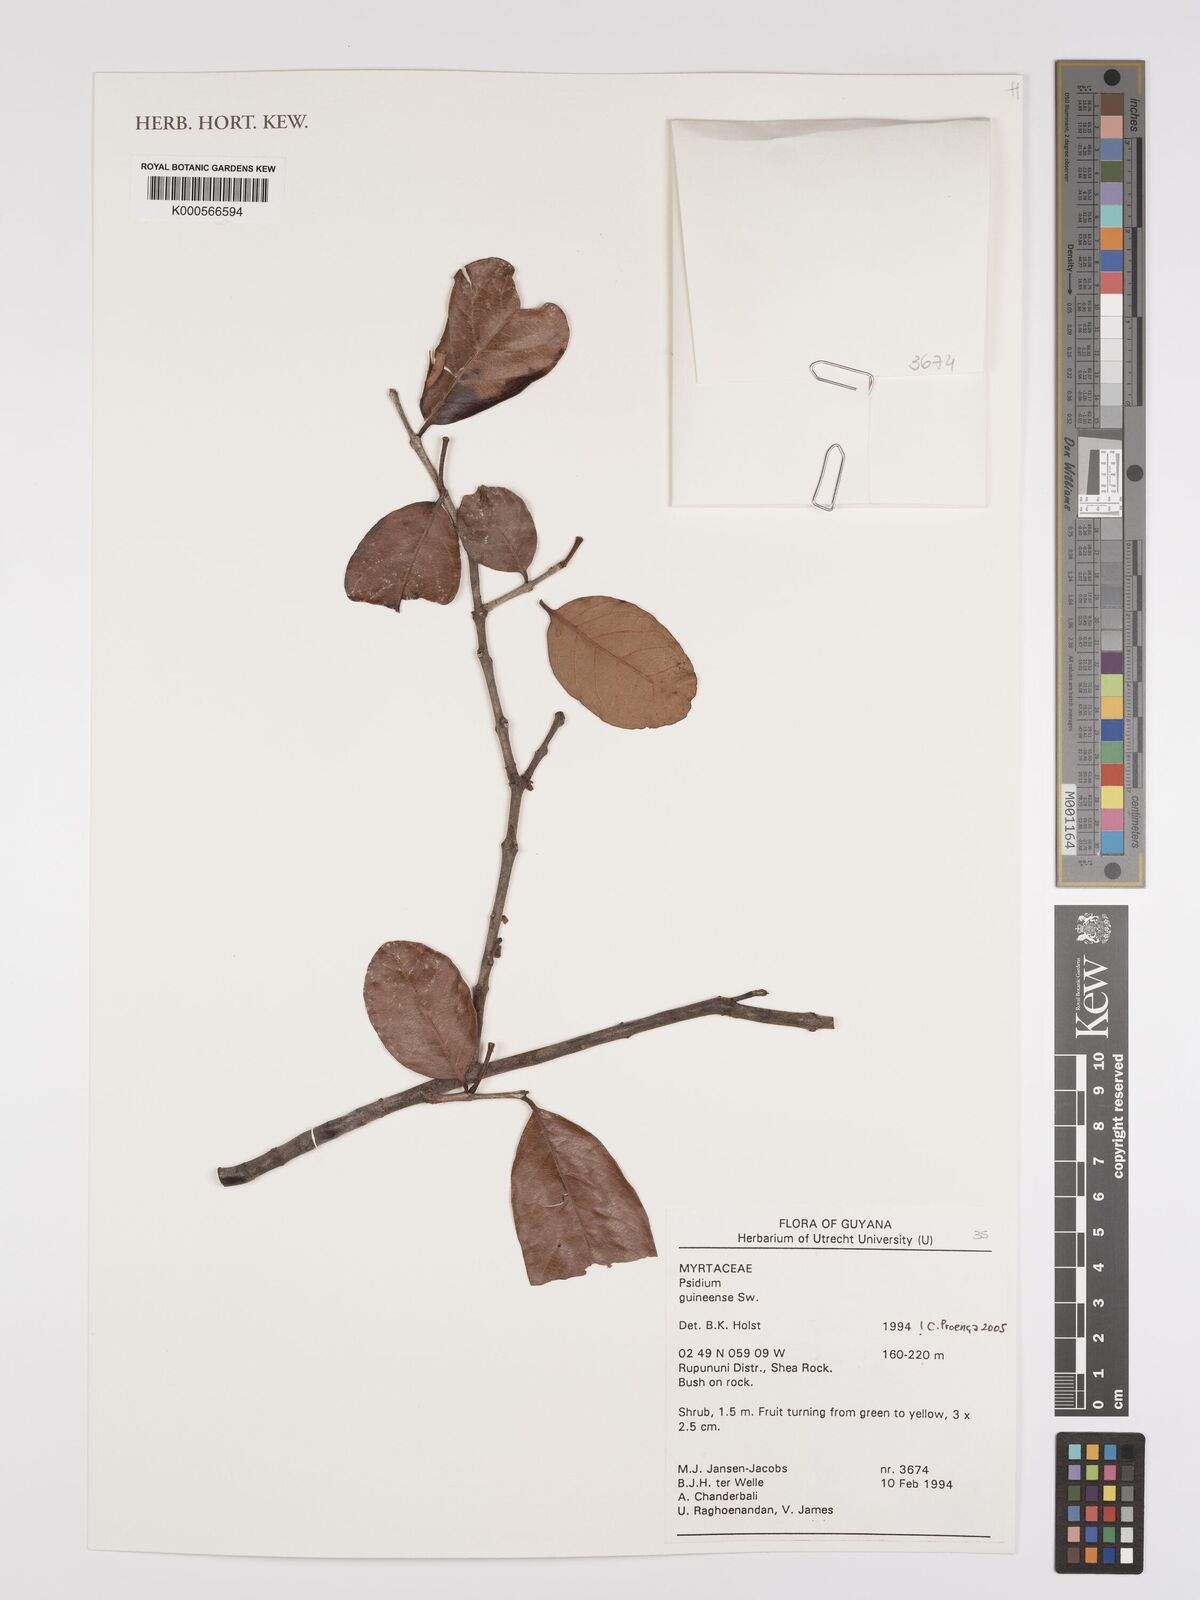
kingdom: Plantae
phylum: Tracheophyta
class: Magnoliopsida
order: Myrtales
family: Myrtaceae
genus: Psidium
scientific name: Psidium guineense
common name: Brazilian guava
